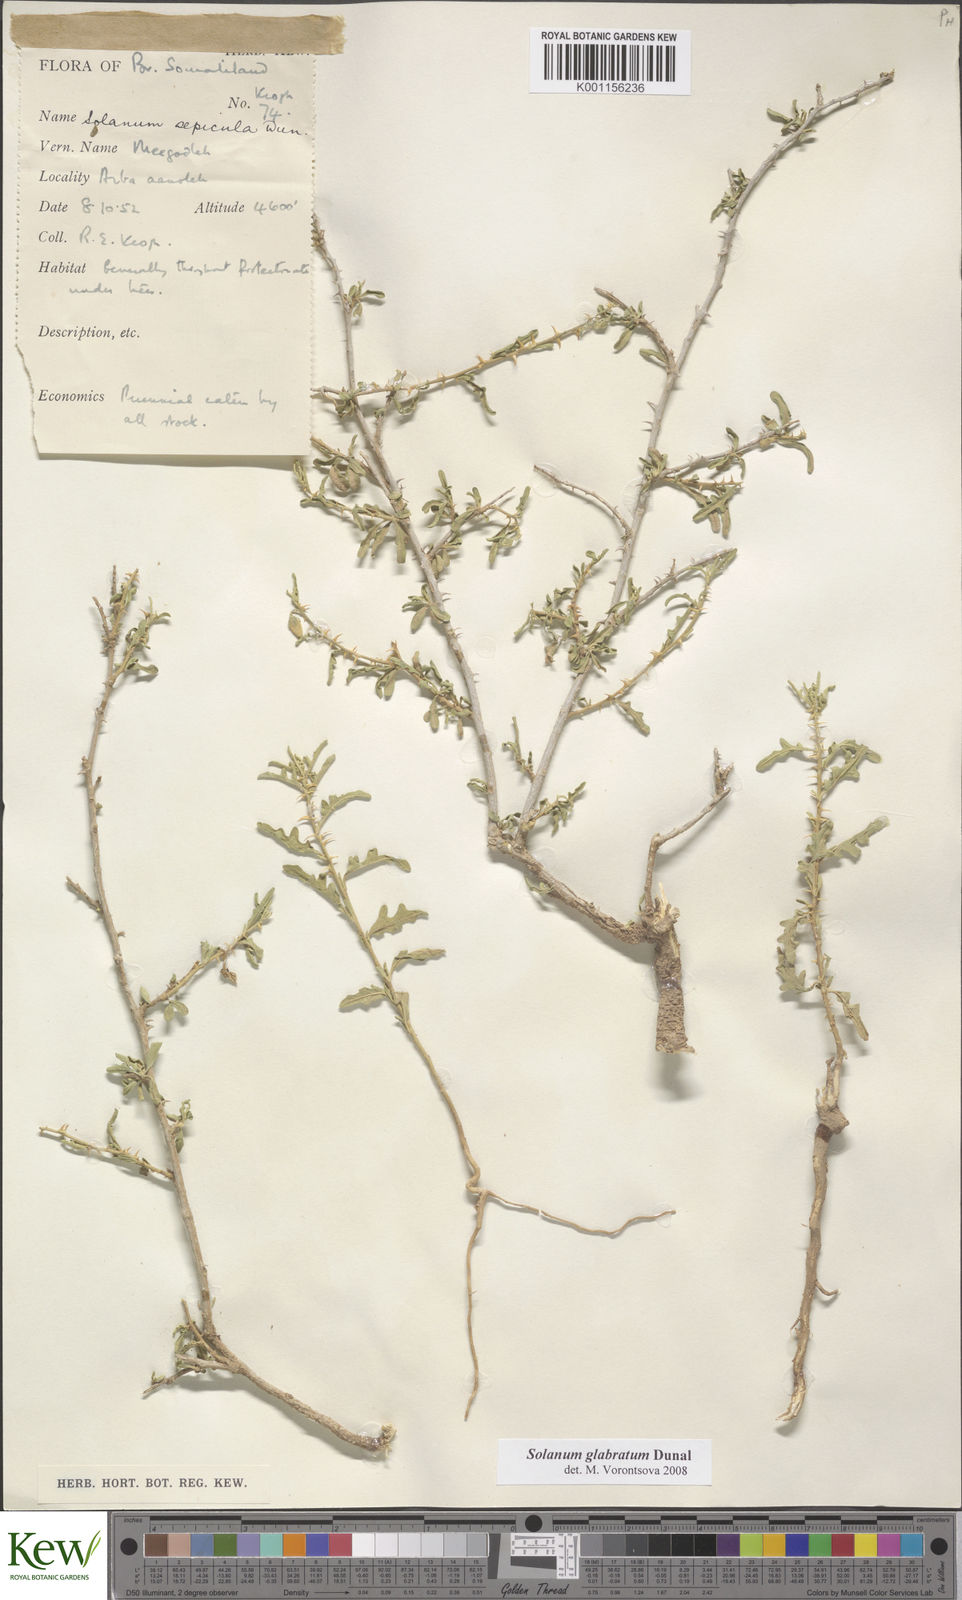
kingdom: Plantae
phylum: Tracheophyta
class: Magnoliopsida
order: Solanales
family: Solanaceae
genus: Solanum
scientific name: Solanum glabratum
